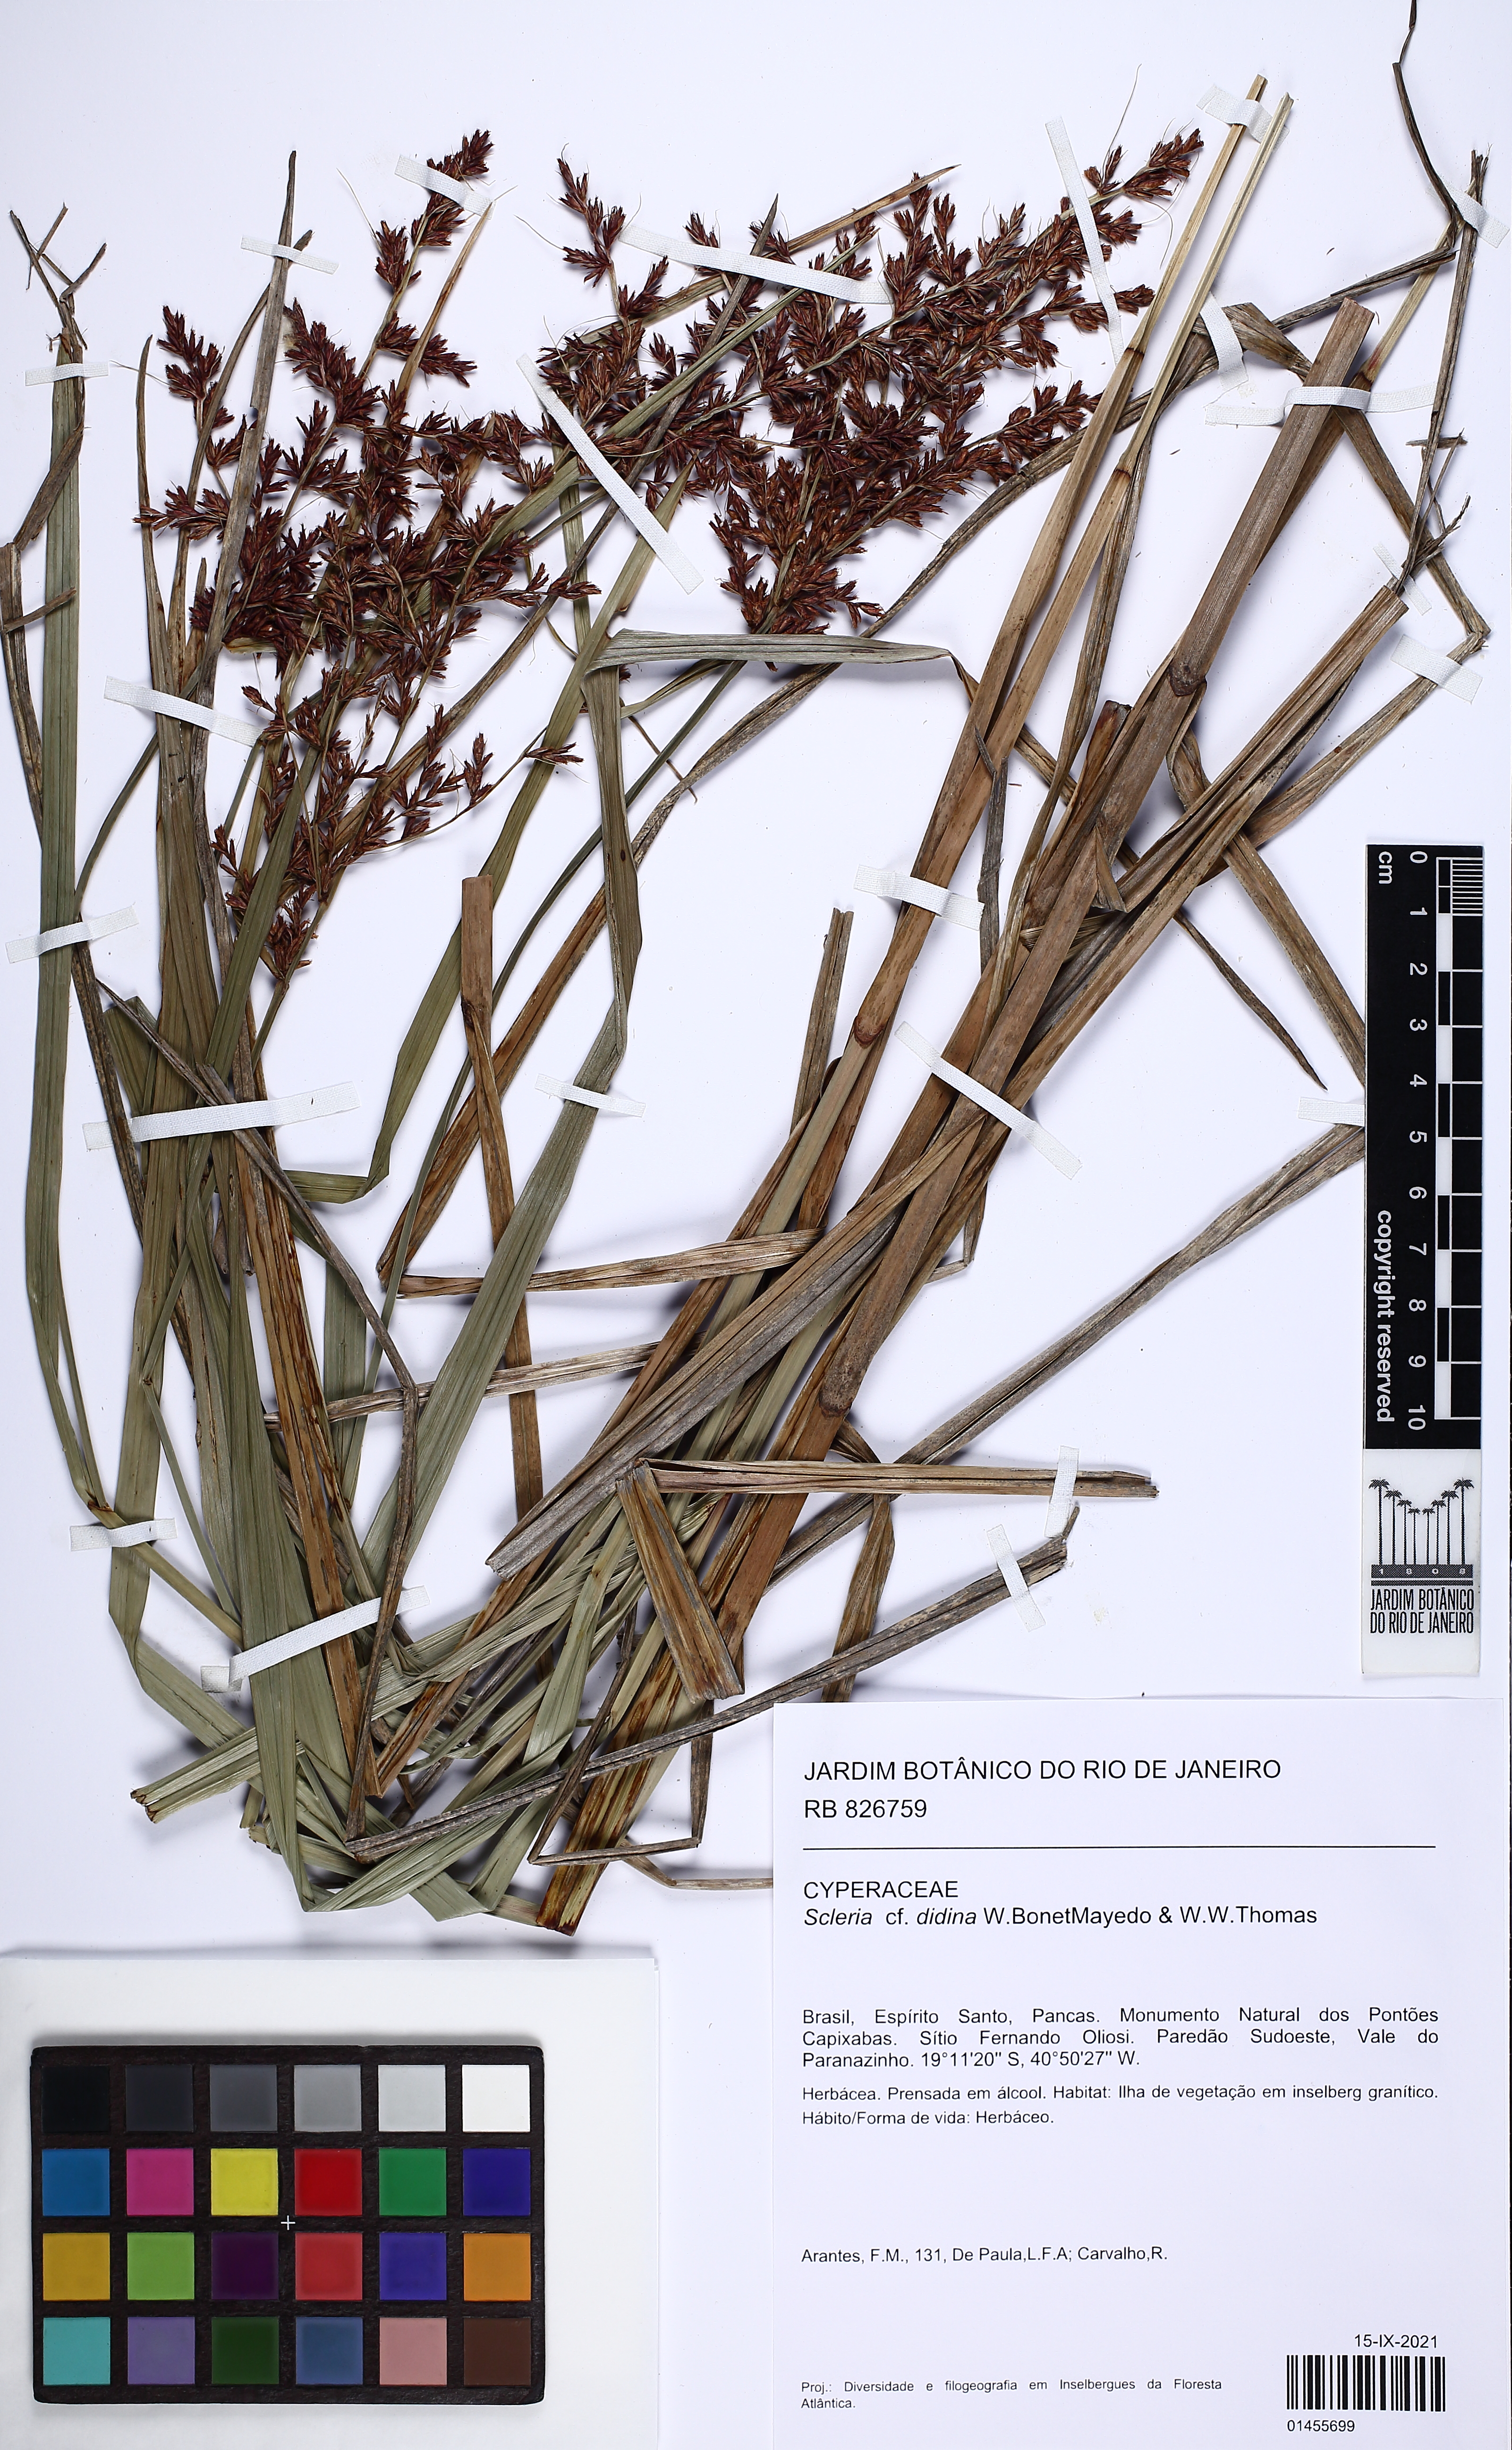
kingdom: Plantae
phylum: Tracheophyta
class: Liliopsida
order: Poales
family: Cyperaceae
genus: Scleria
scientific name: Scleria didina
